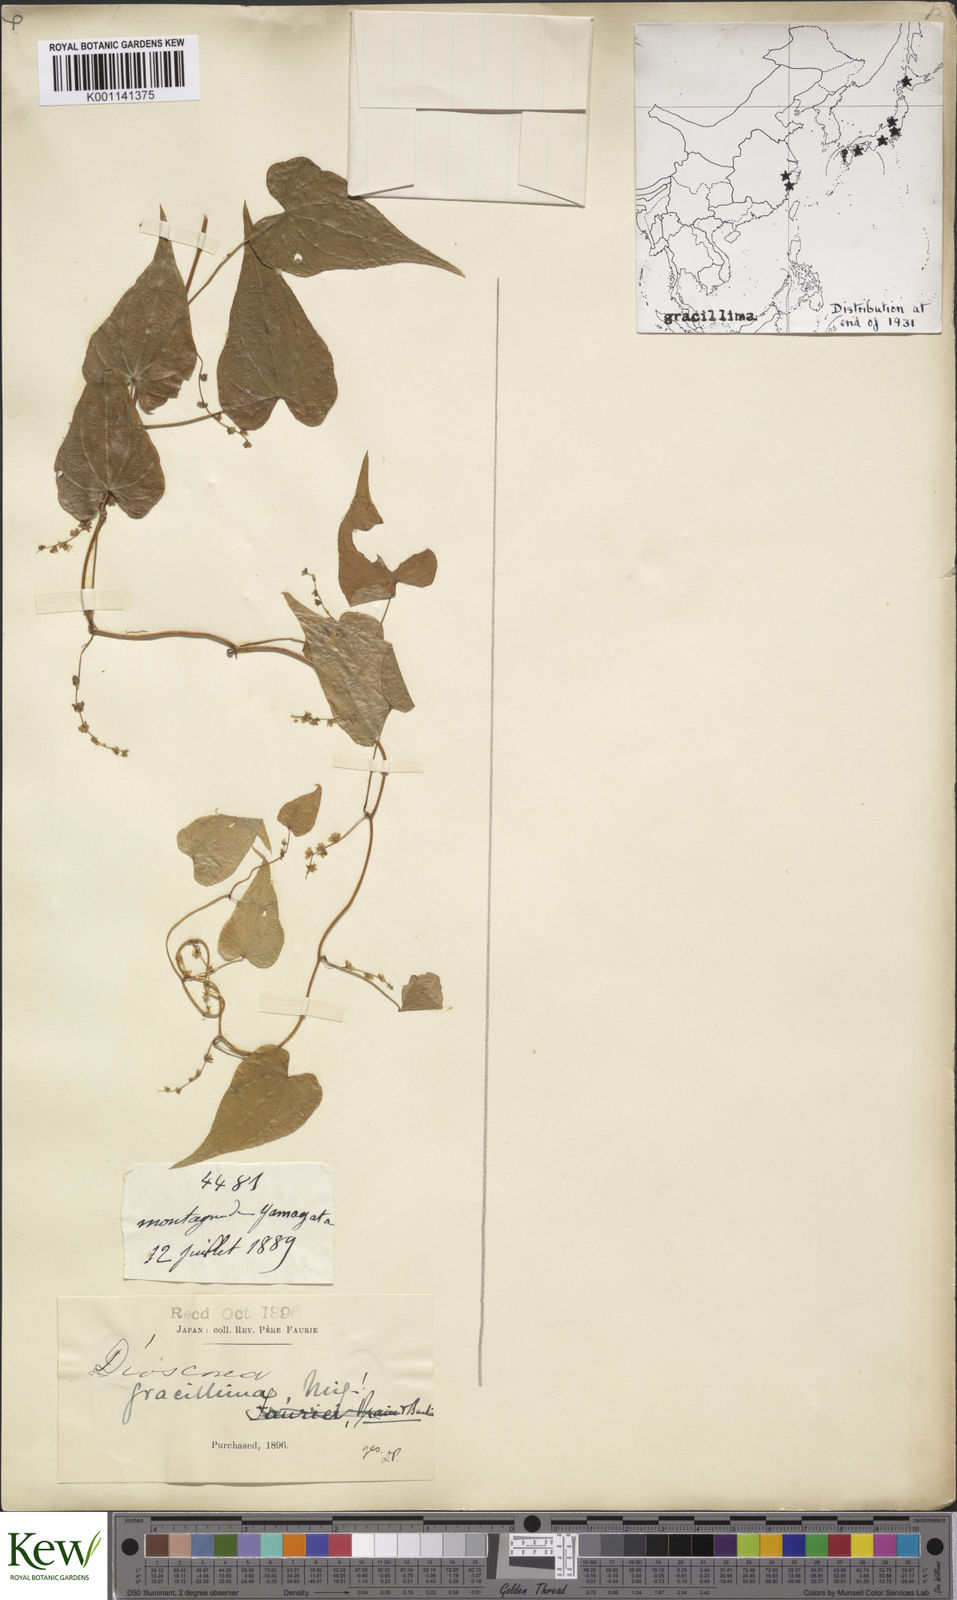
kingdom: Plantae
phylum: Tracheophyta
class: Liliopsida
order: Dioscoreales
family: Dioscoreaceae
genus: Dioscorea
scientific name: Dioscorea gracillima
